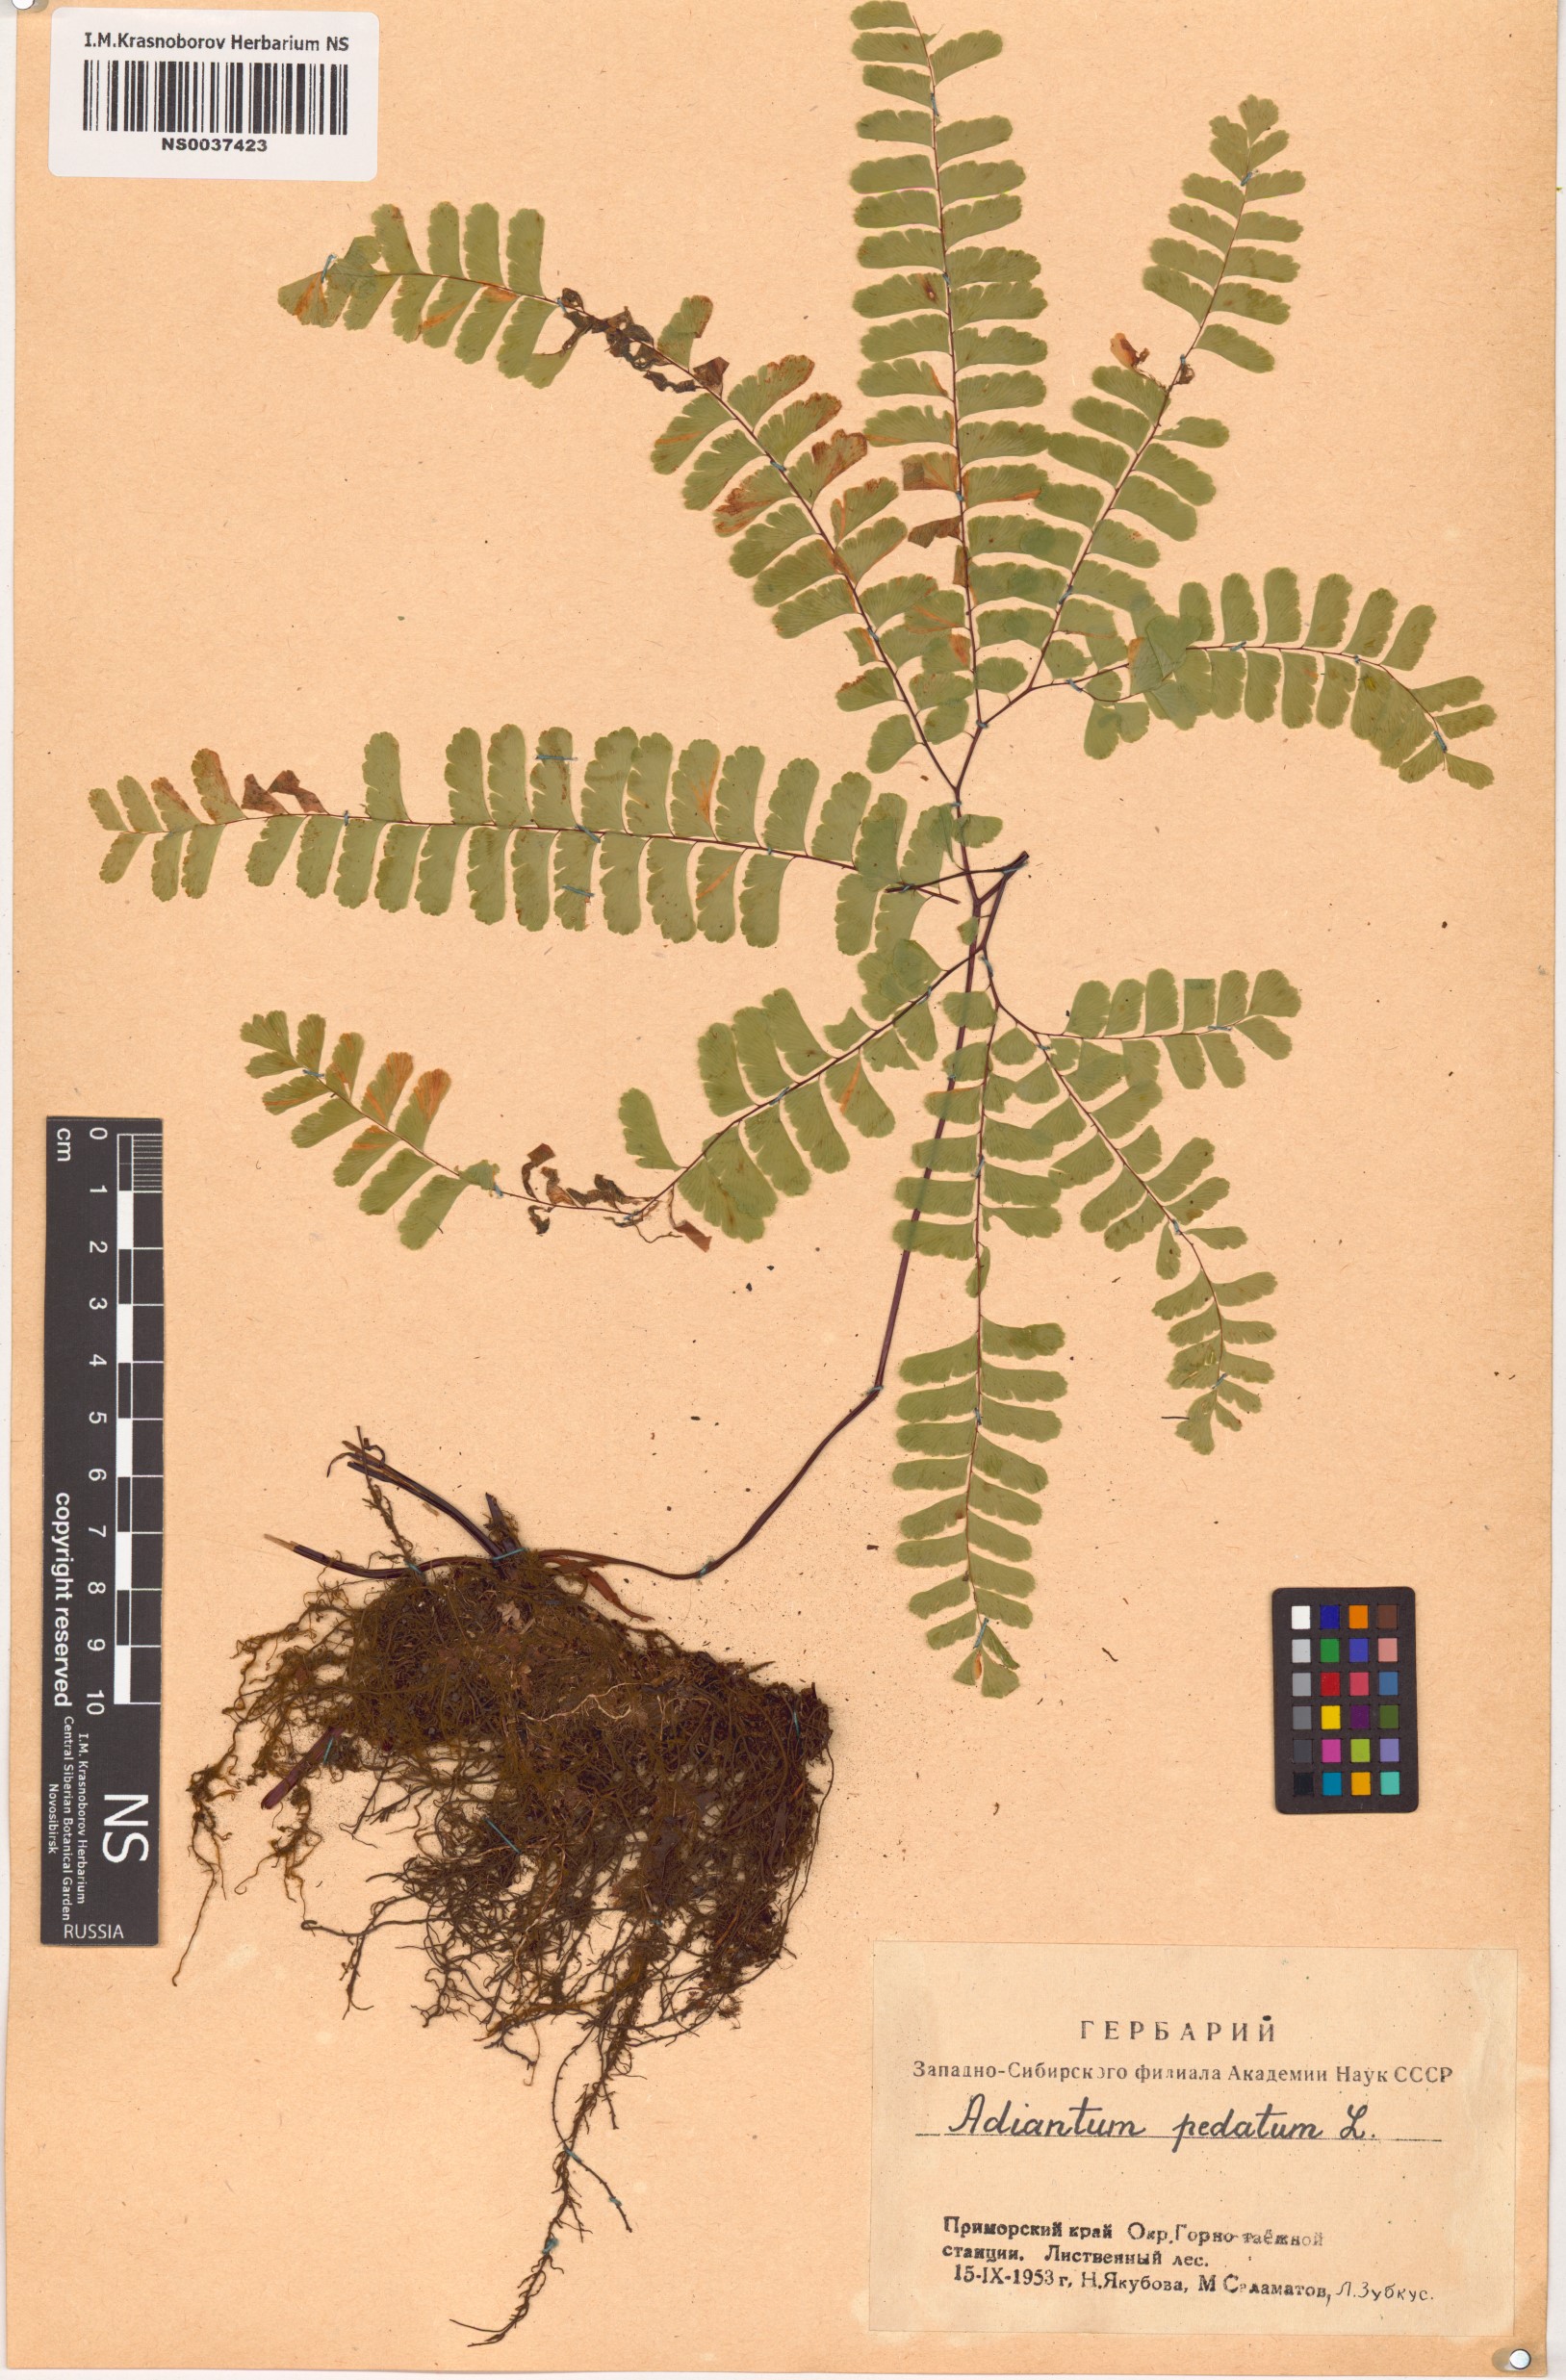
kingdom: Plantae
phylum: Tracheophyta
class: Polypodiopsida
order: Polypodiales
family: Pteridaceae
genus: Adiantum
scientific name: Adiantum pedatum
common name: Five-finger fern
